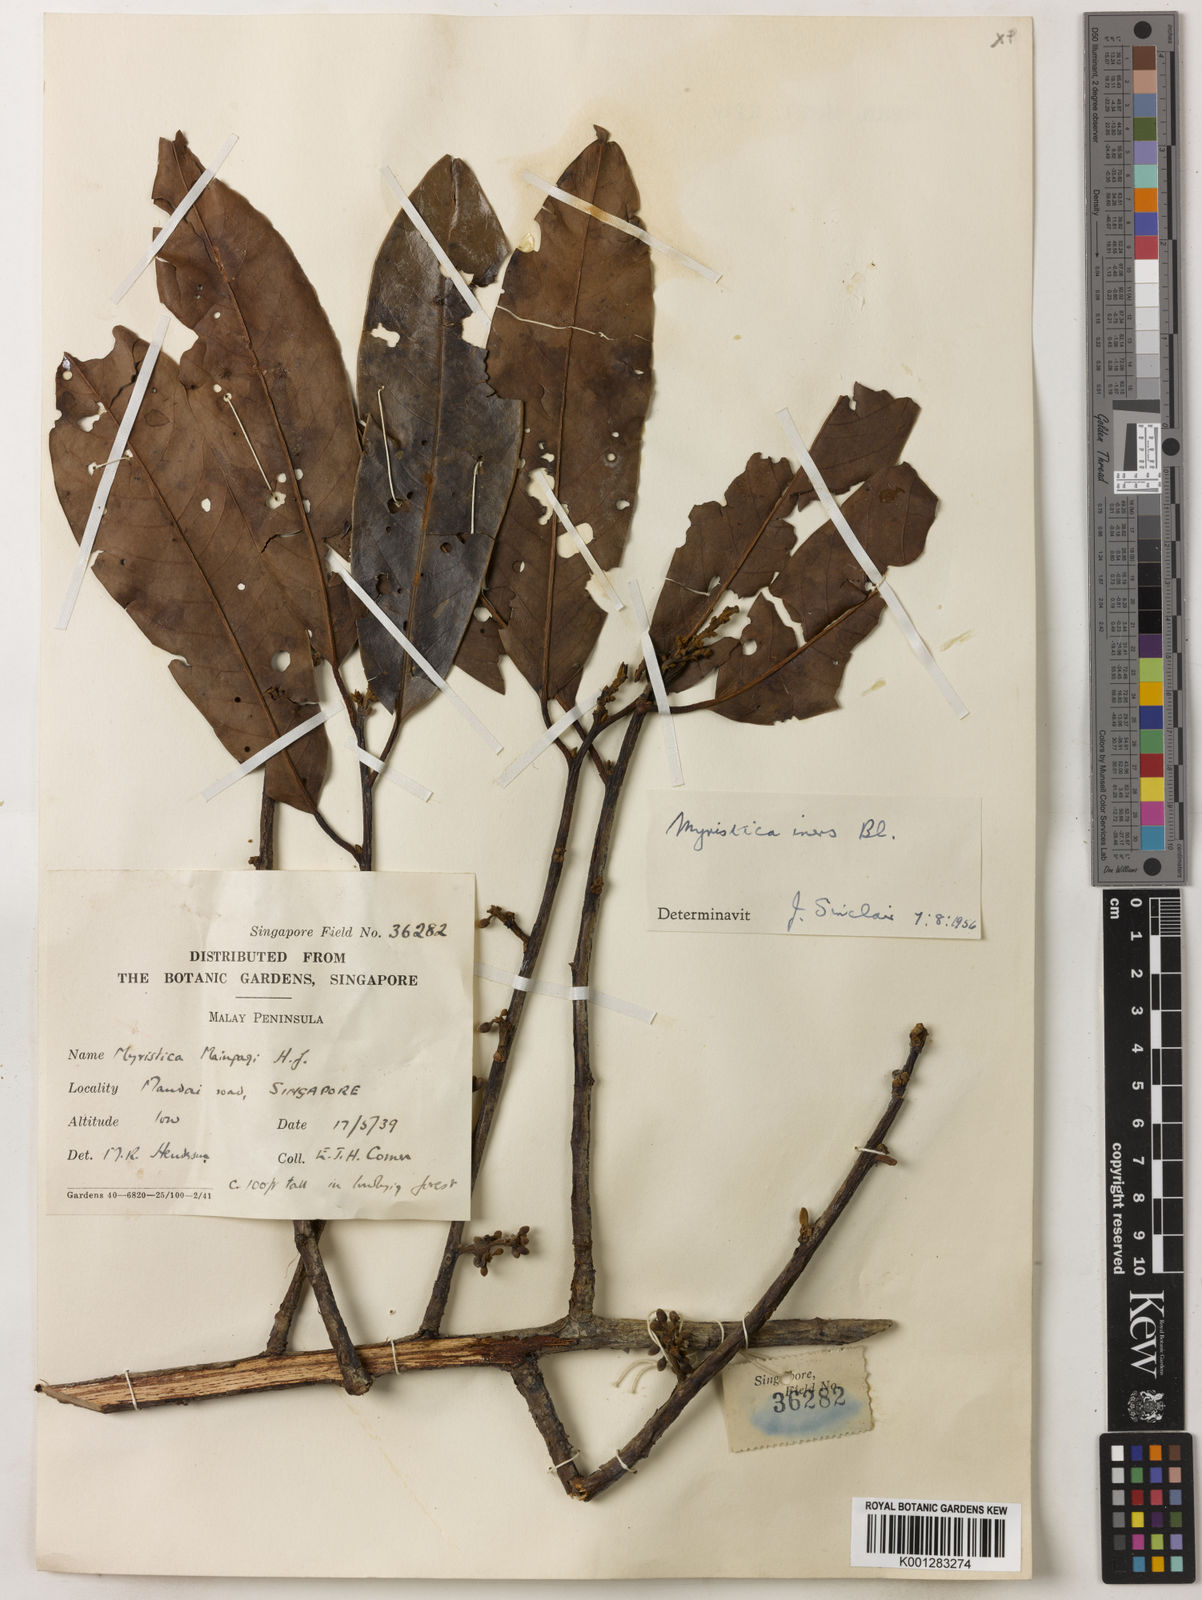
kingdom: Plantae
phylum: Tracheophyta
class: Magnoliopsida
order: Magnoliales
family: Myristicaceae
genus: Myristica
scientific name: Myristica iners
